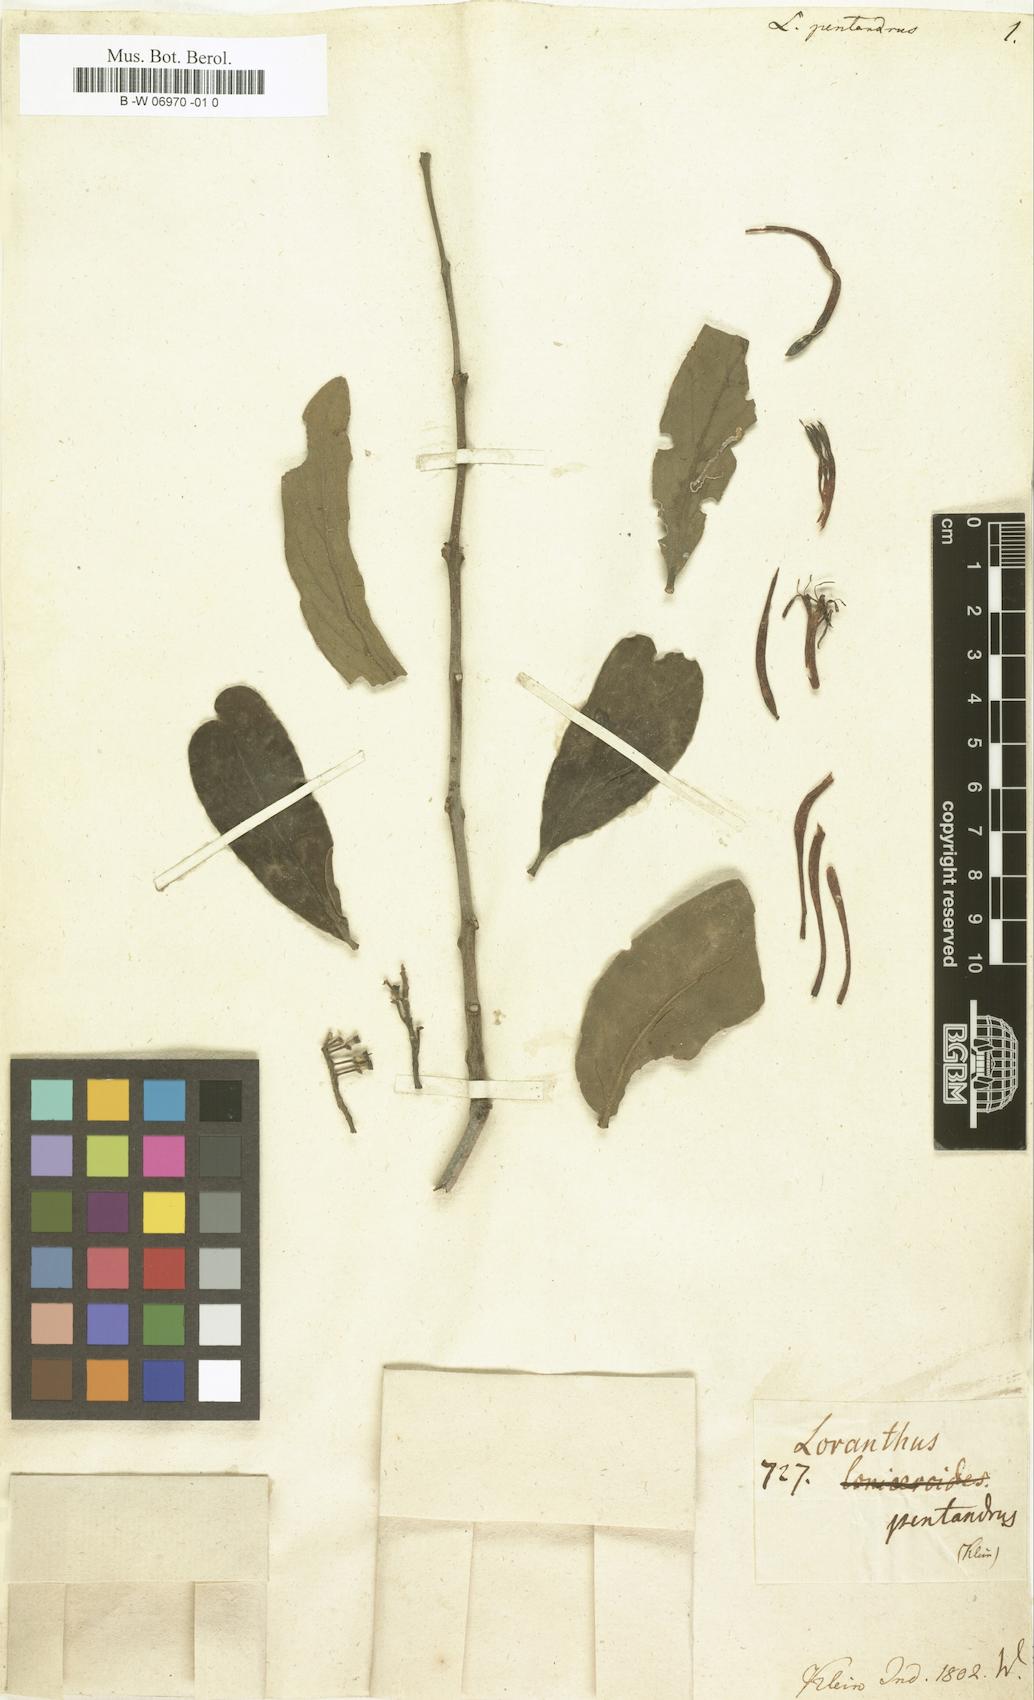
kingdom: Plantae
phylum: Tracheophyta
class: Magnoliopsida
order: Santalales
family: Loranthaceae
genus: Dendrophthoe
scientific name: Dendrophthoe
